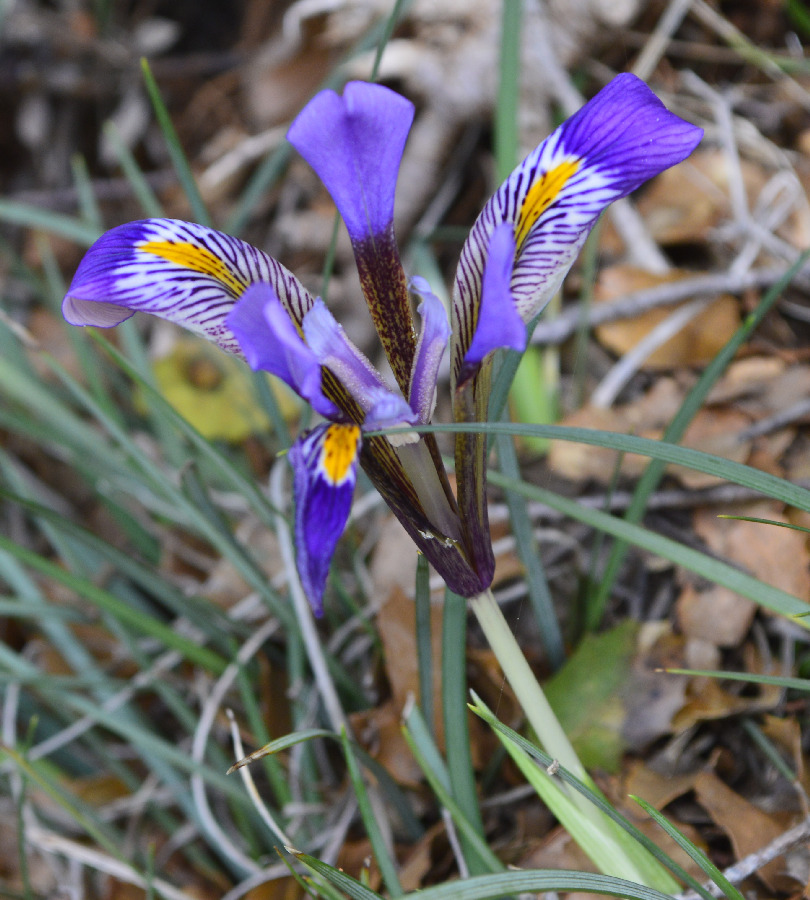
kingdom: Plantae
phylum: Tracheophyta
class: Liliopsida
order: Asparagales
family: Iridaceae
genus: Iris
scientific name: Iris cretica
